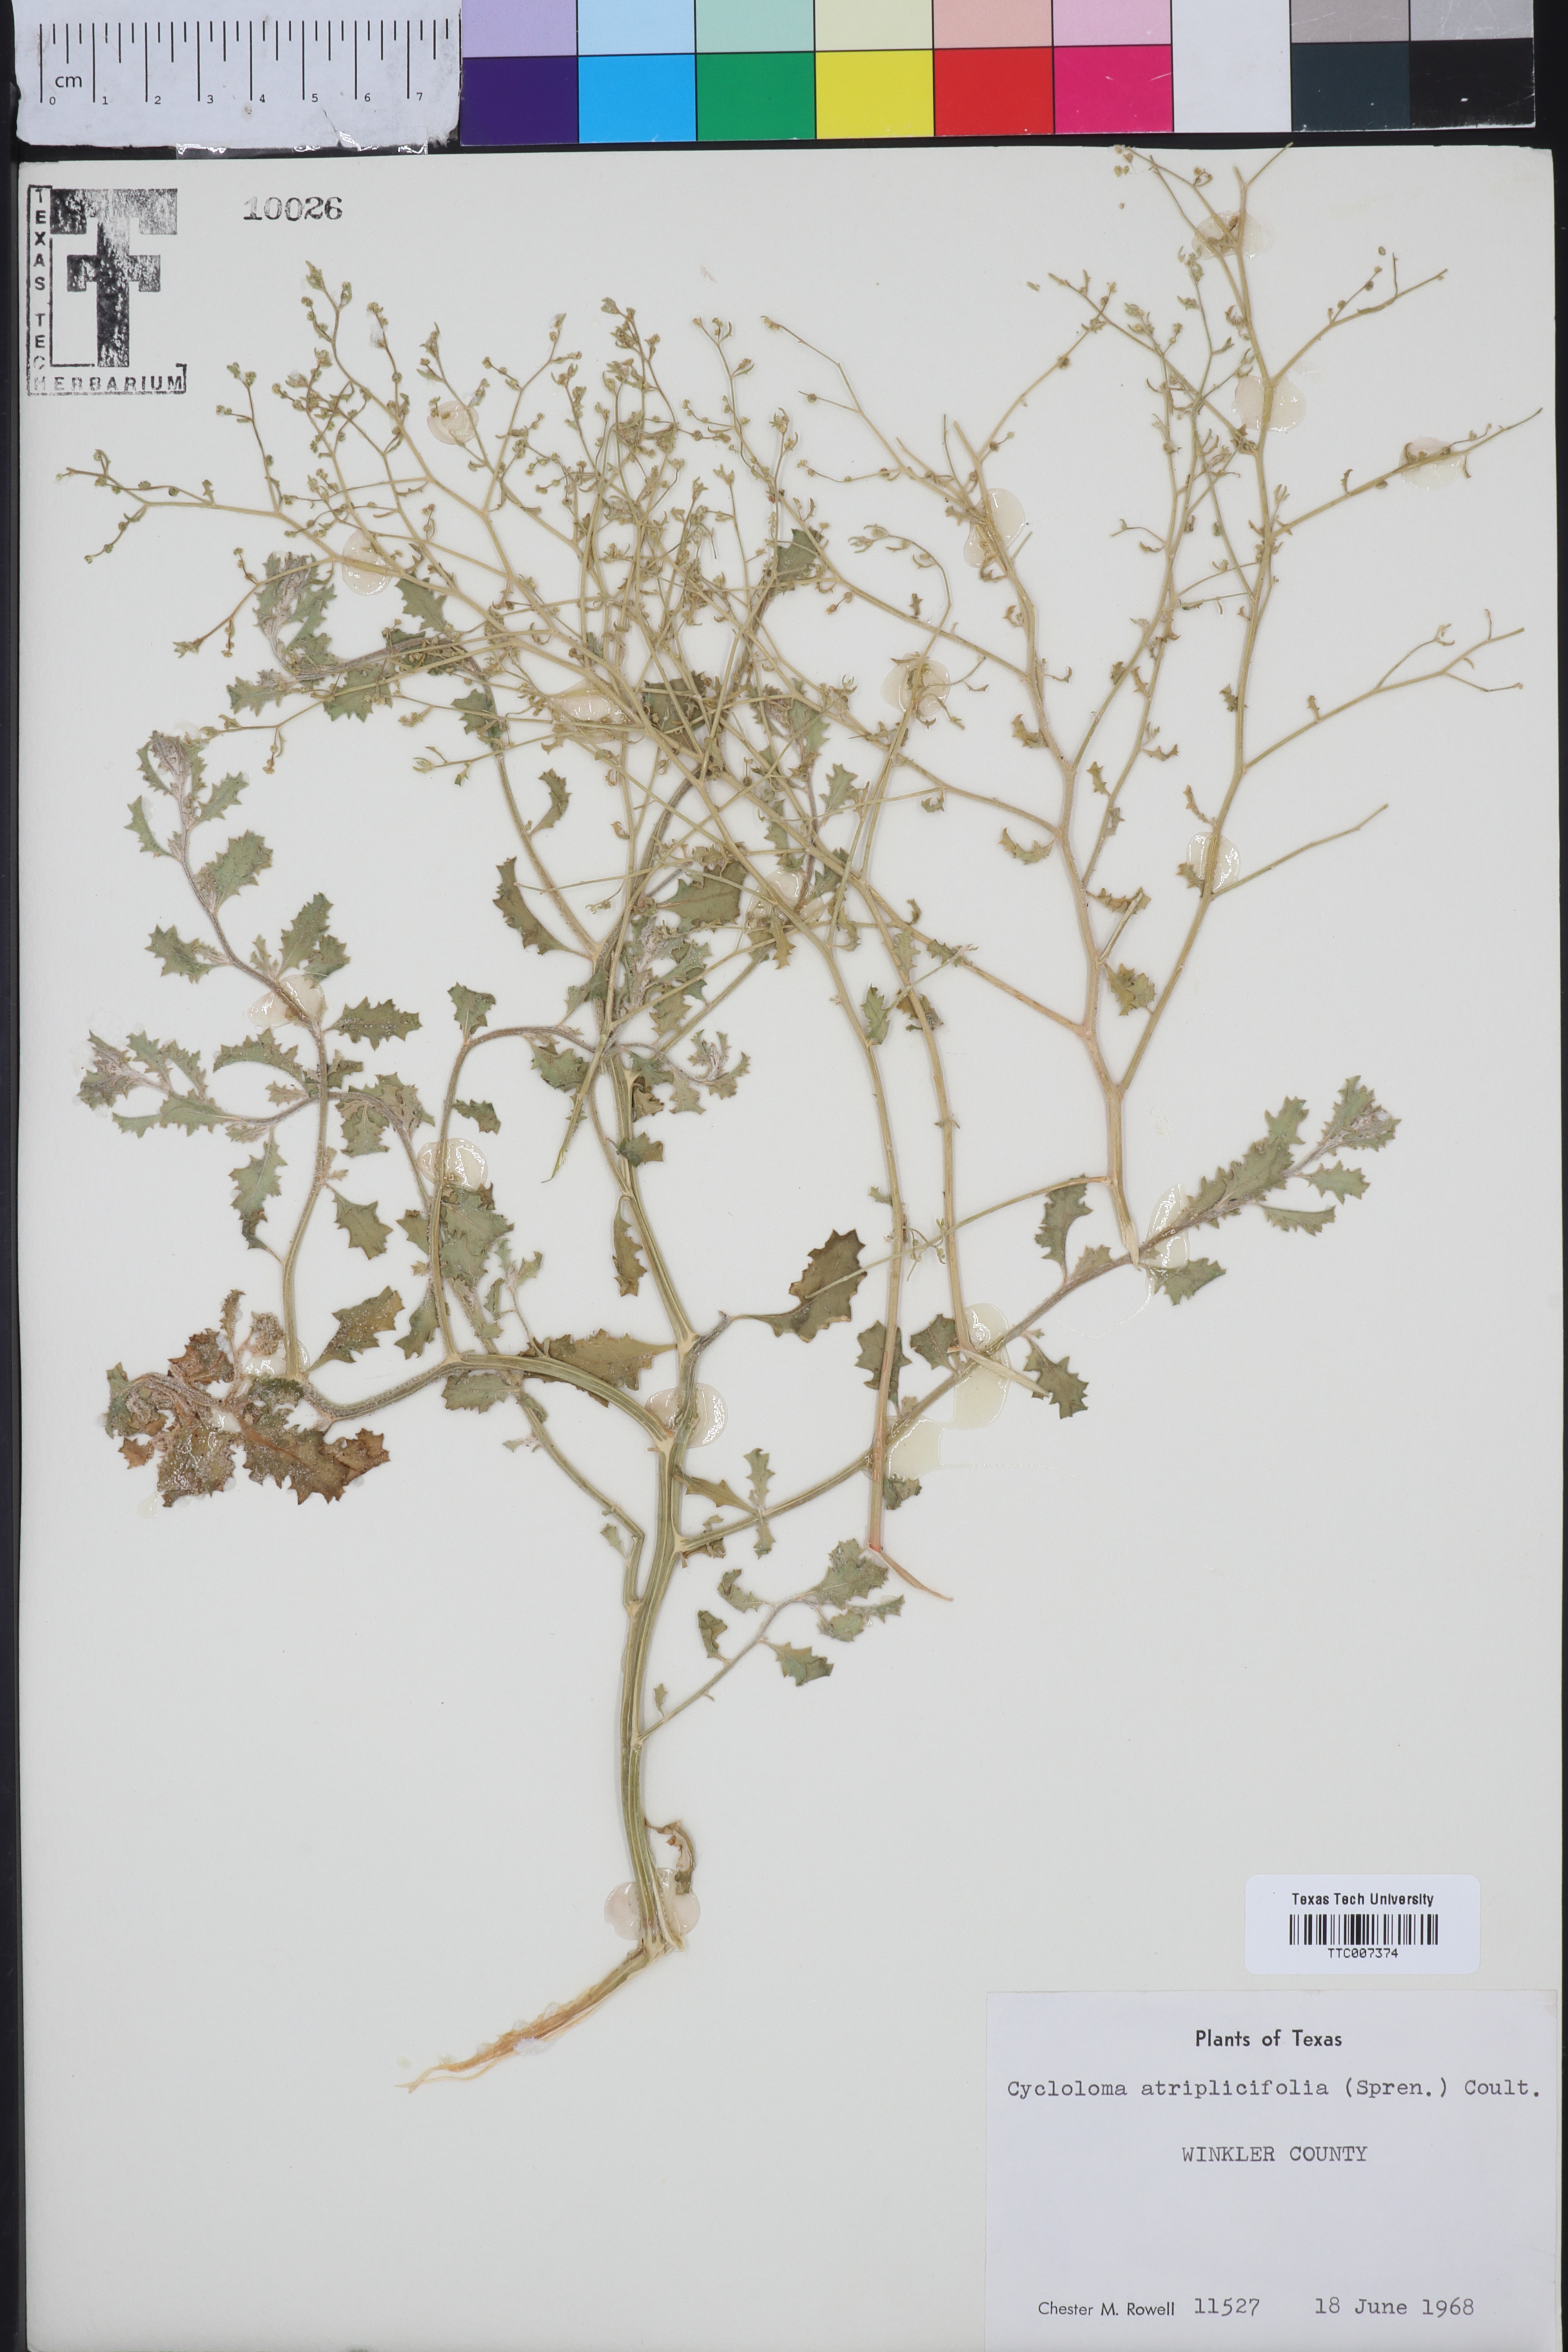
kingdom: Plantae
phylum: Tracheophyta
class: Magnoliopsida
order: Caryophyllales
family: Amaranthaceae
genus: Dysphania
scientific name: Dysphania atriplicifolia
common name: Plains tumbleweed
